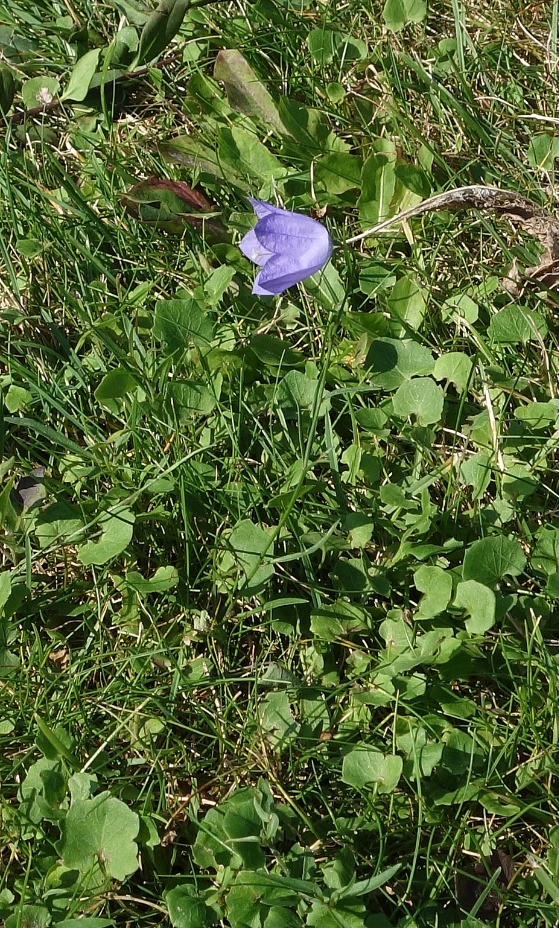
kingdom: Plantae
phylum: Tracheophyta
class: Magnoliopsida
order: Asterales
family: Campanulaceae
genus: Campanula
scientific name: Campanula rotundifolia
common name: Liden klokke
